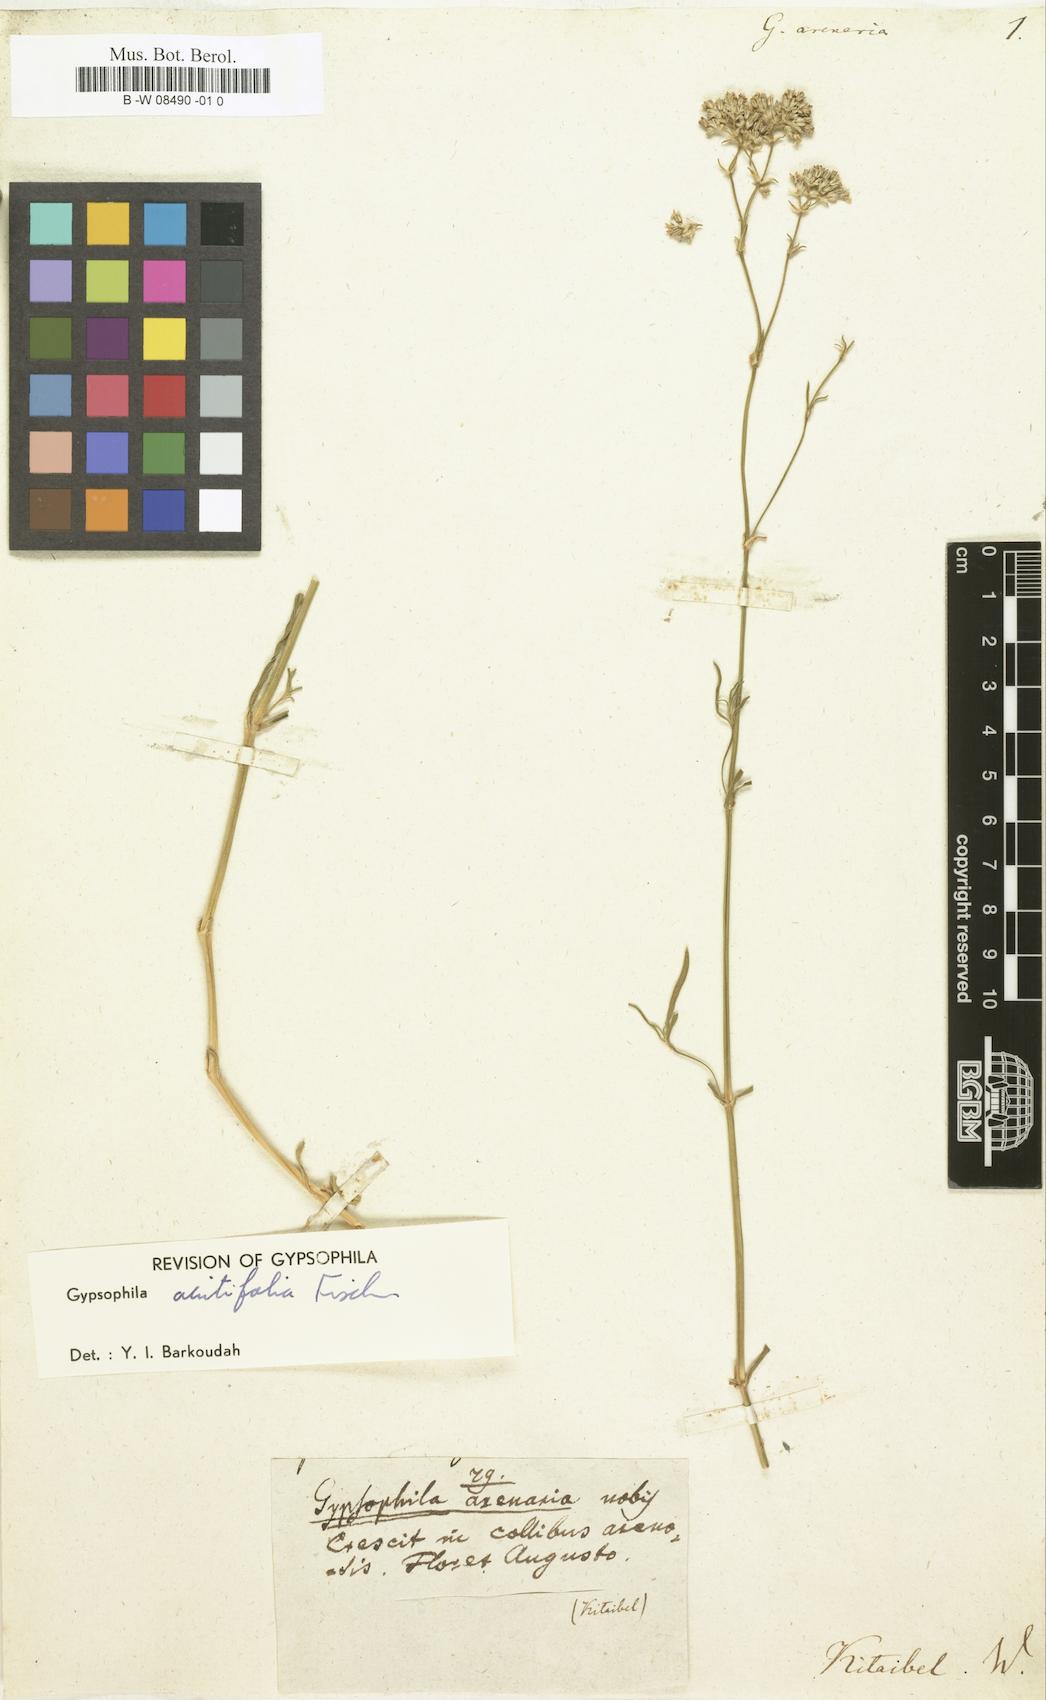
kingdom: Plantae
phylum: Tracheophyta
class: Magnoliopsida
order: Caryophyllales
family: Caryophyllaceae
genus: Gypsophila
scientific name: Gypsophila fastigiata
